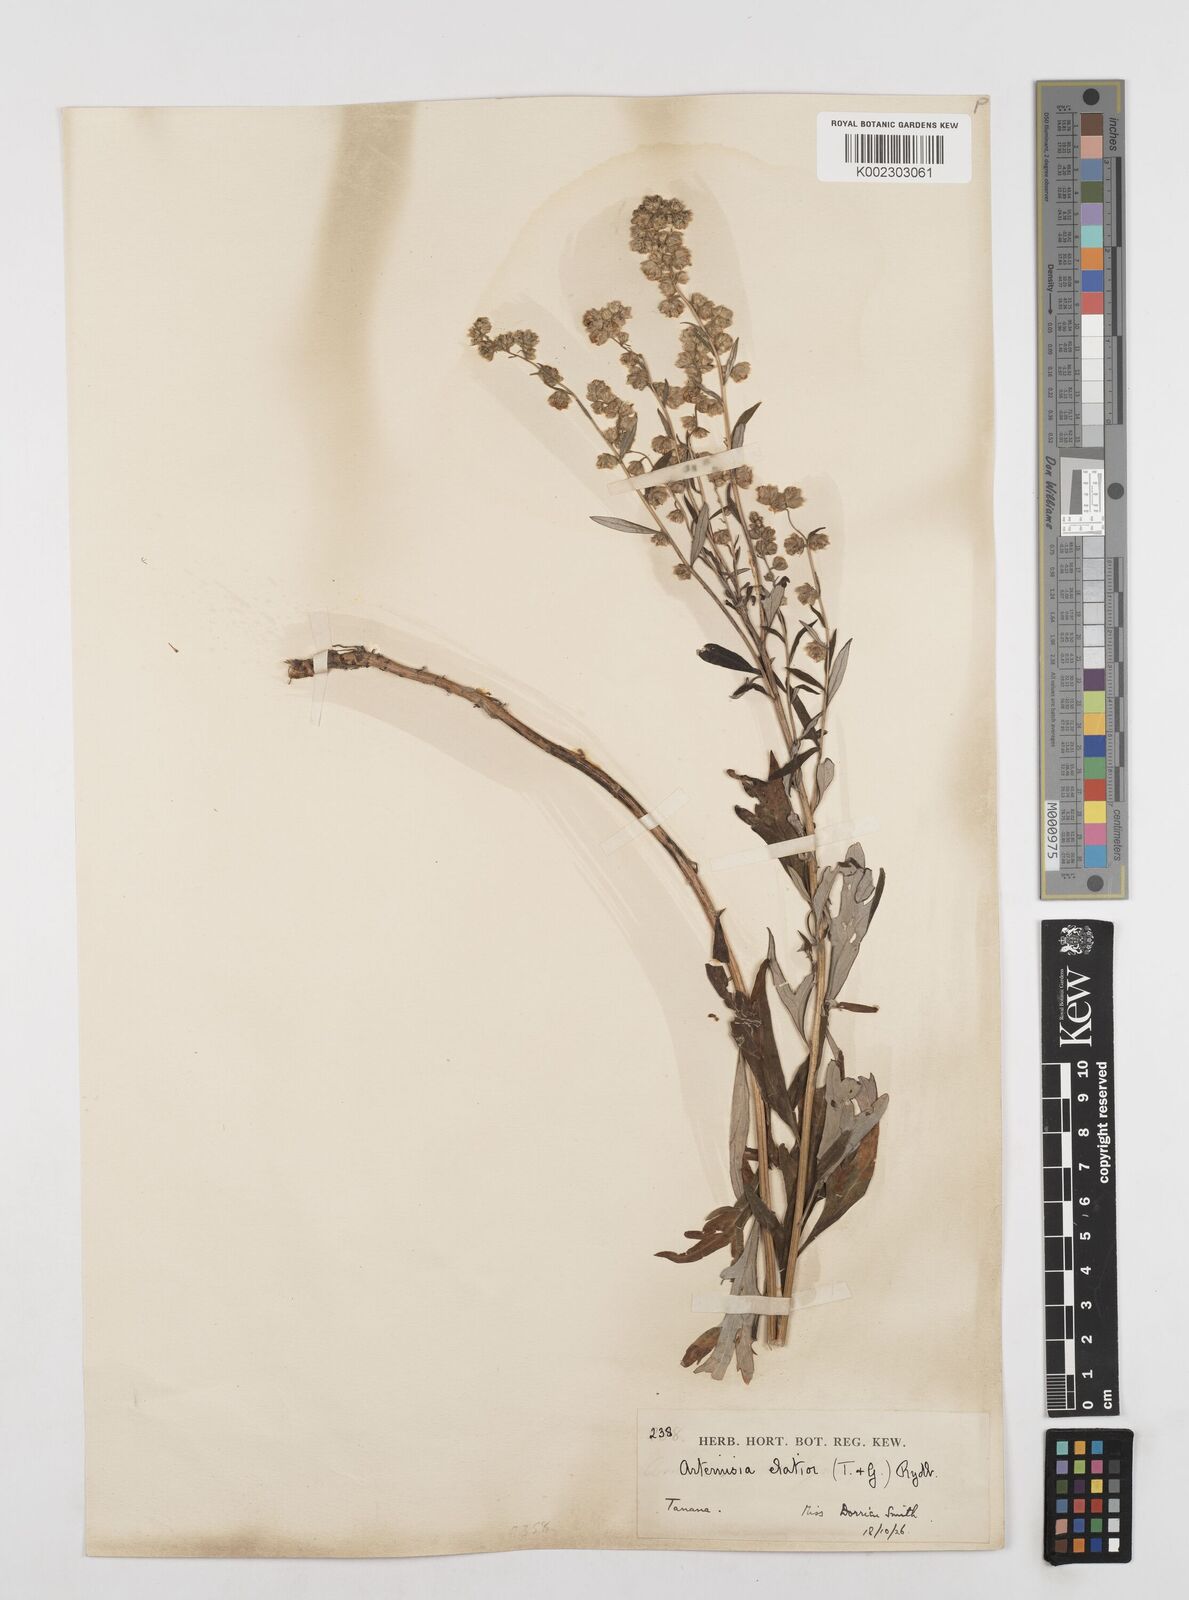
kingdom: Plantae
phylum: Tracheophyta
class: Magnoliopsida
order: Asterales
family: Asteraceae
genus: Artemisia
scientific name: Artemisia tilesii
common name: Aleutian mugwort
